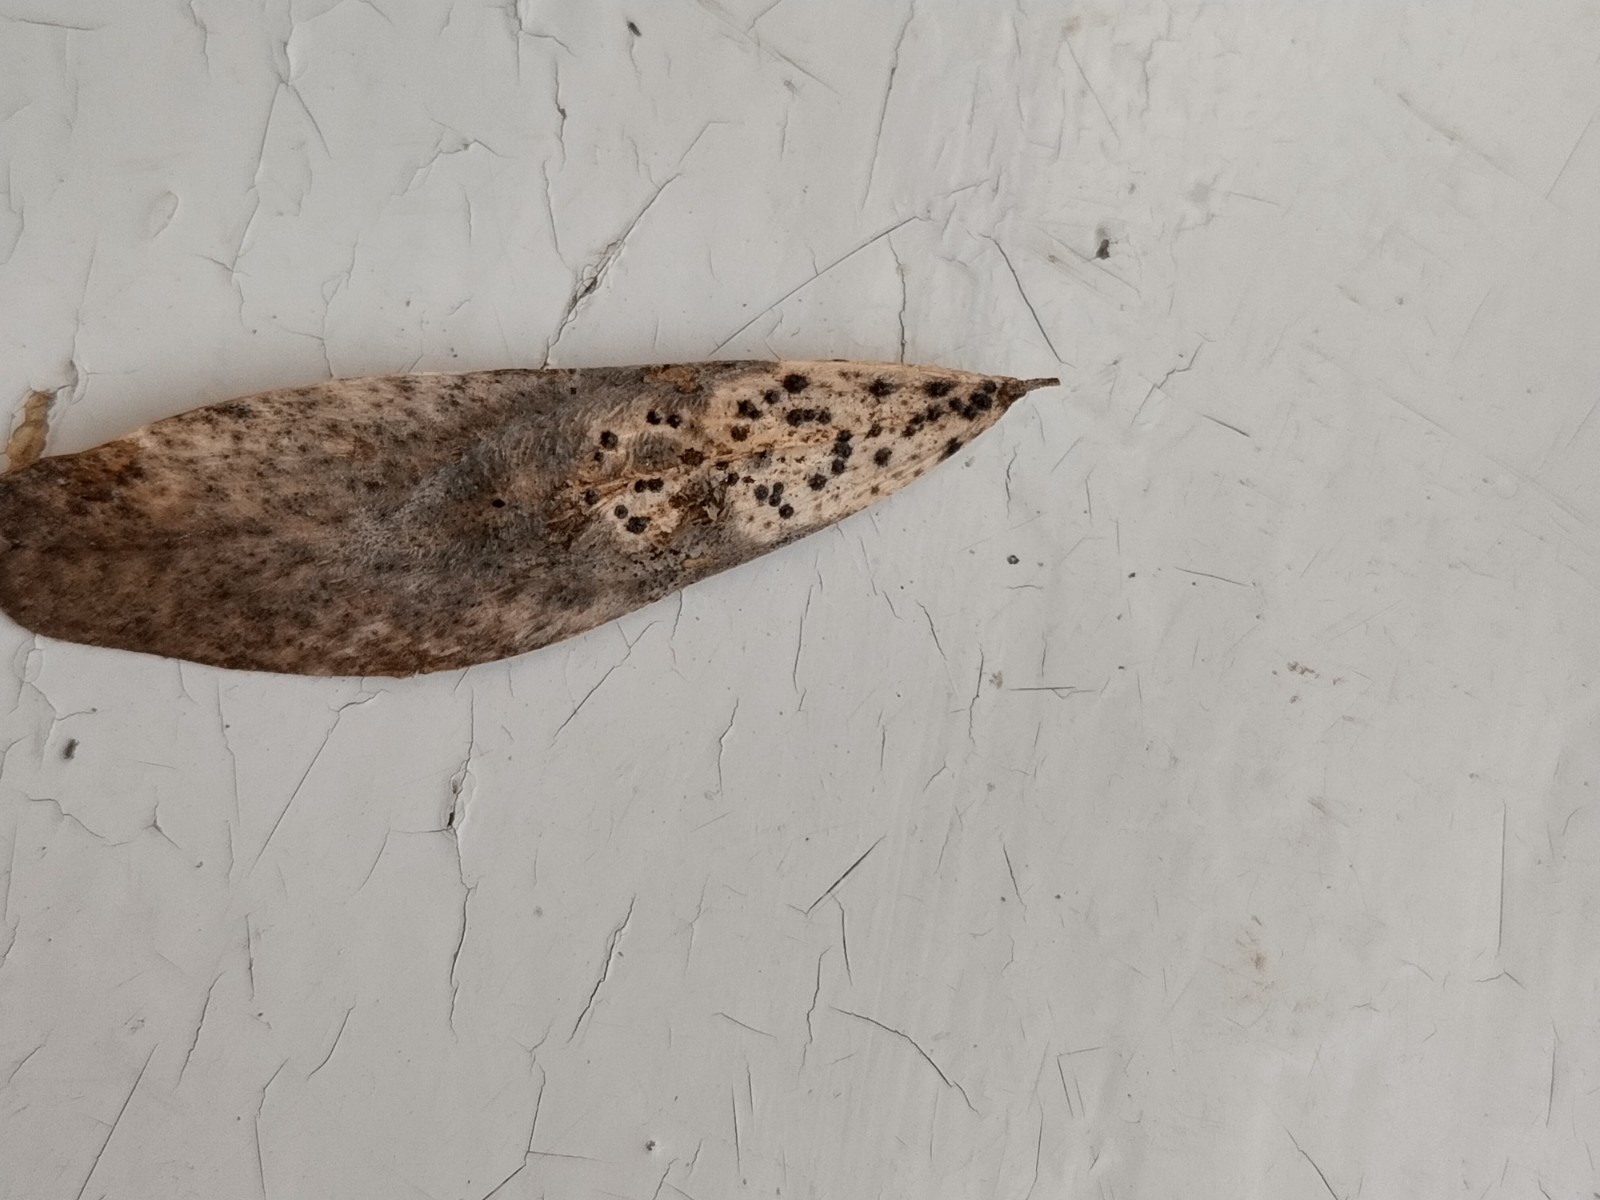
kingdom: Fungi
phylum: Ascomycota
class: Sordariomycetes
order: Diaporthales
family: Diaporthaceae
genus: Diaporthe
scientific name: Diaporthe samaricola
